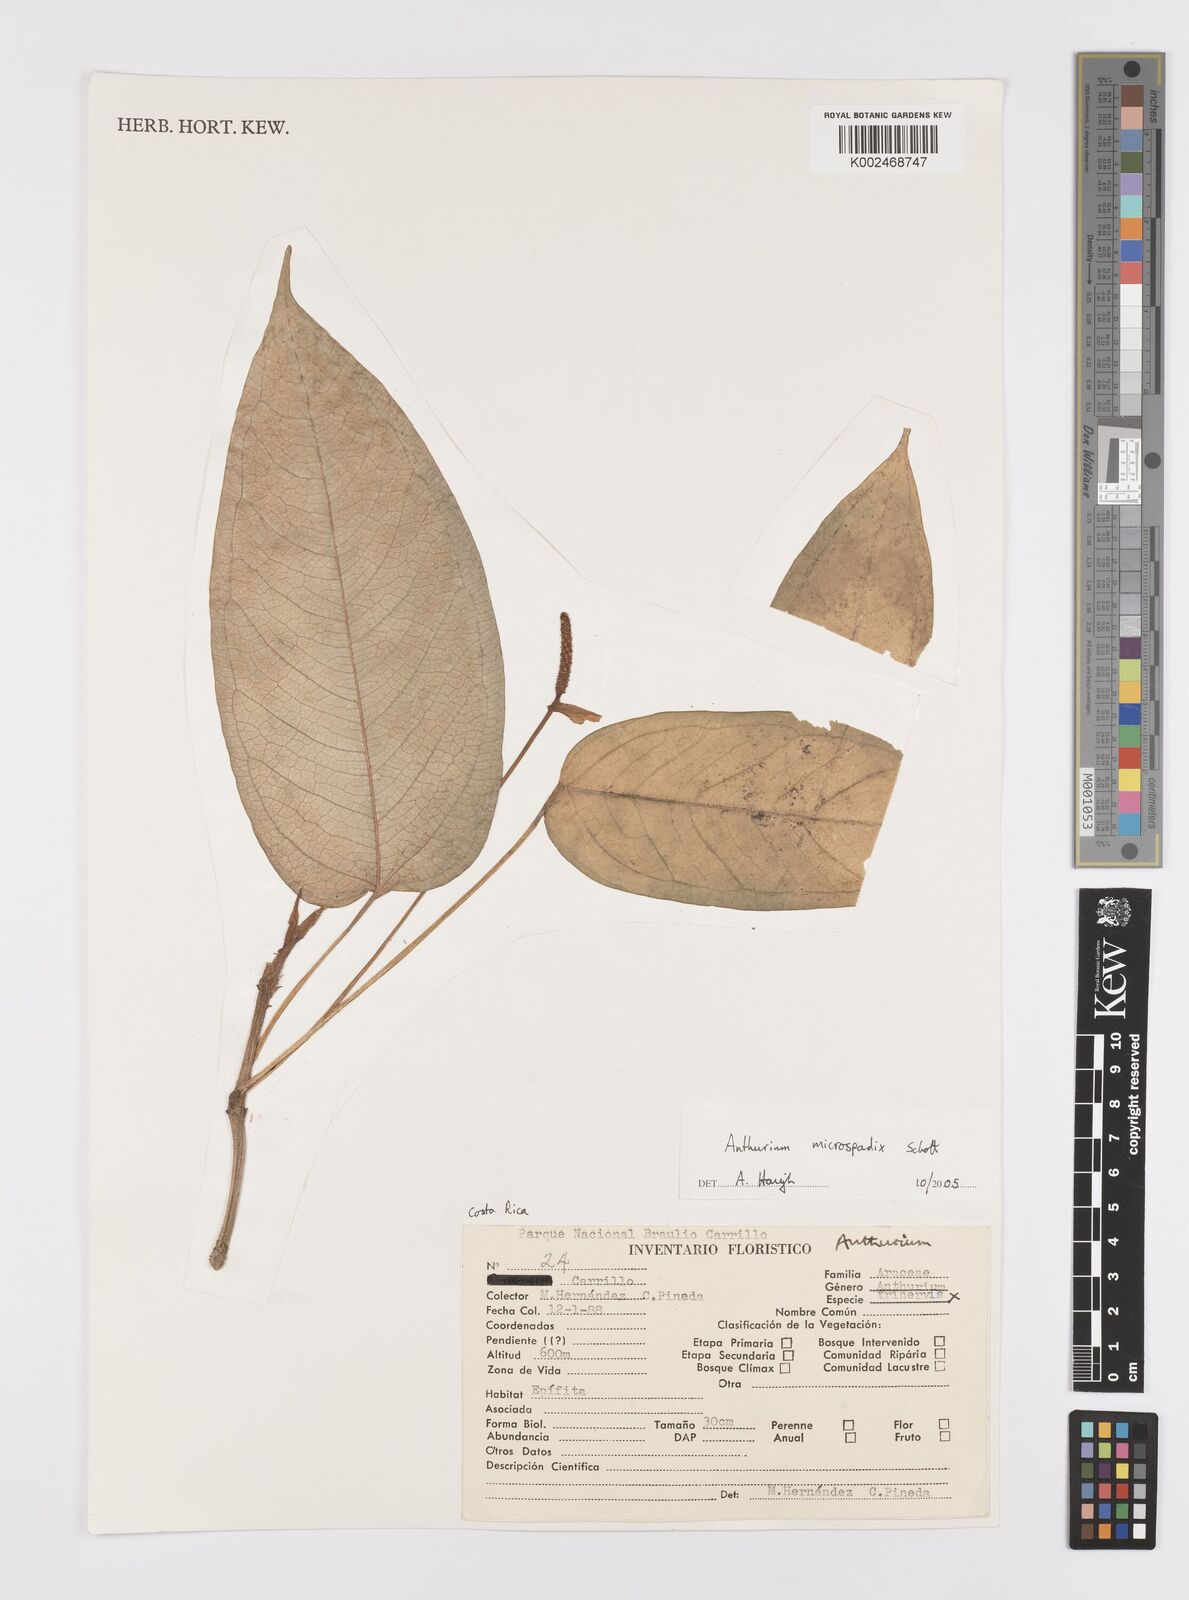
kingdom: Plantae
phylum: Tracheophyta
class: Liliopsida
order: Alismatales
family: Araceae
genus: Anthurium
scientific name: Anthurium microspadix
